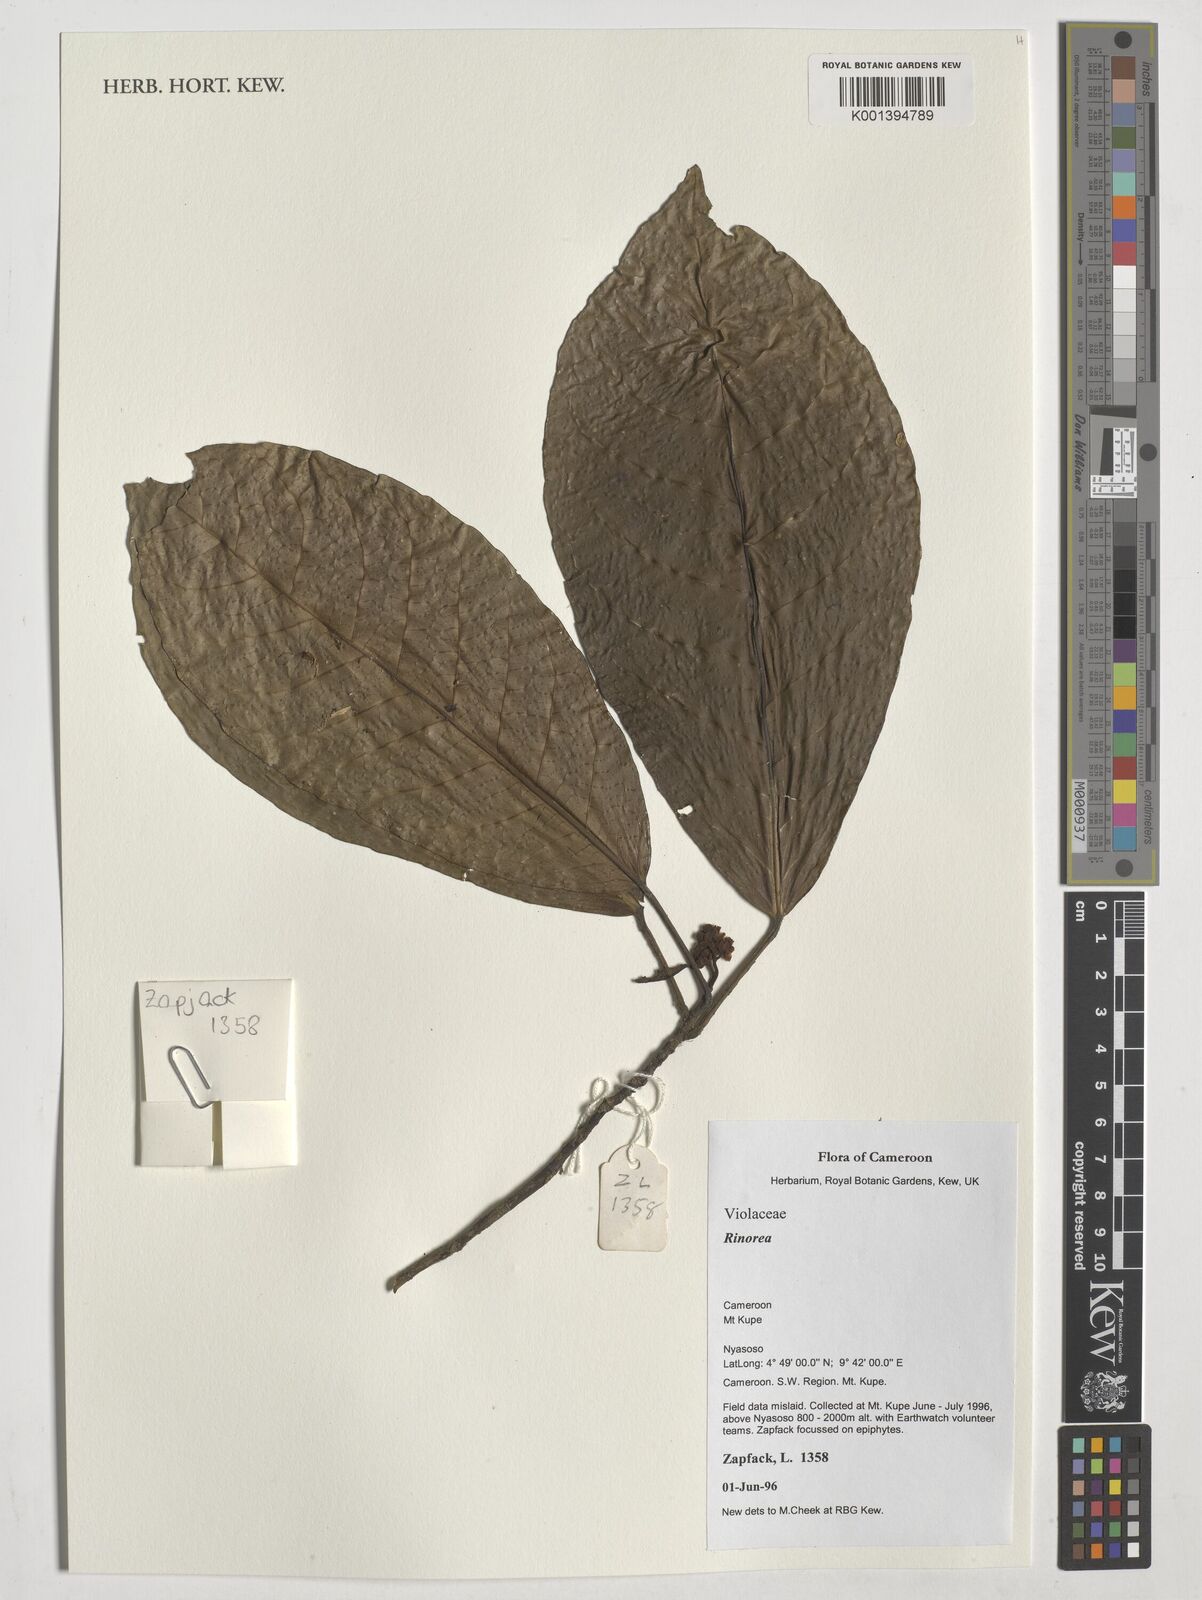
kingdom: Plantae
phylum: Tracheophyta
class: Magnoliopsida
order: Malpighiales
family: Violaceae
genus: Rinorea
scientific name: Rinorea
